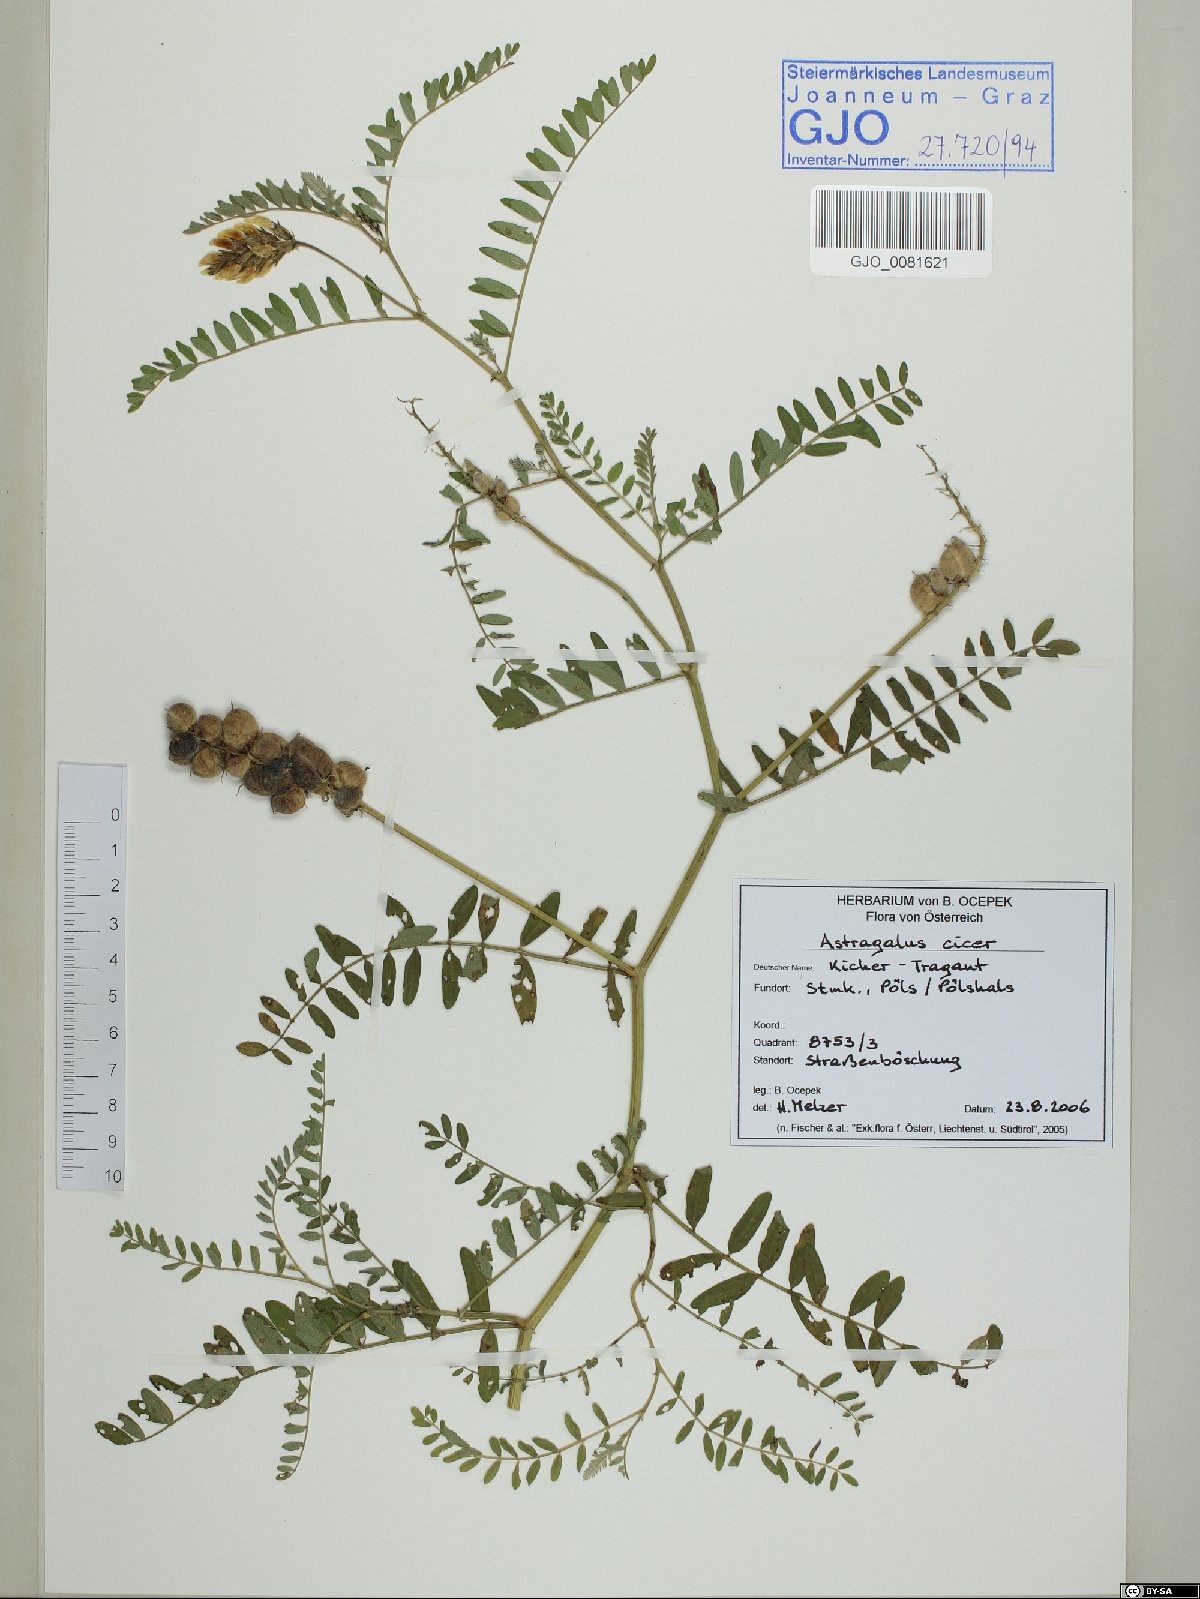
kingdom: Plantae
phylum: Tracheophyta
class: Magnoliopsida
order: Fabales
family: Fabaceae
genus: Astragalus
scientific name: Astragalus cicer
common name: Chick-pea milk-vetch
